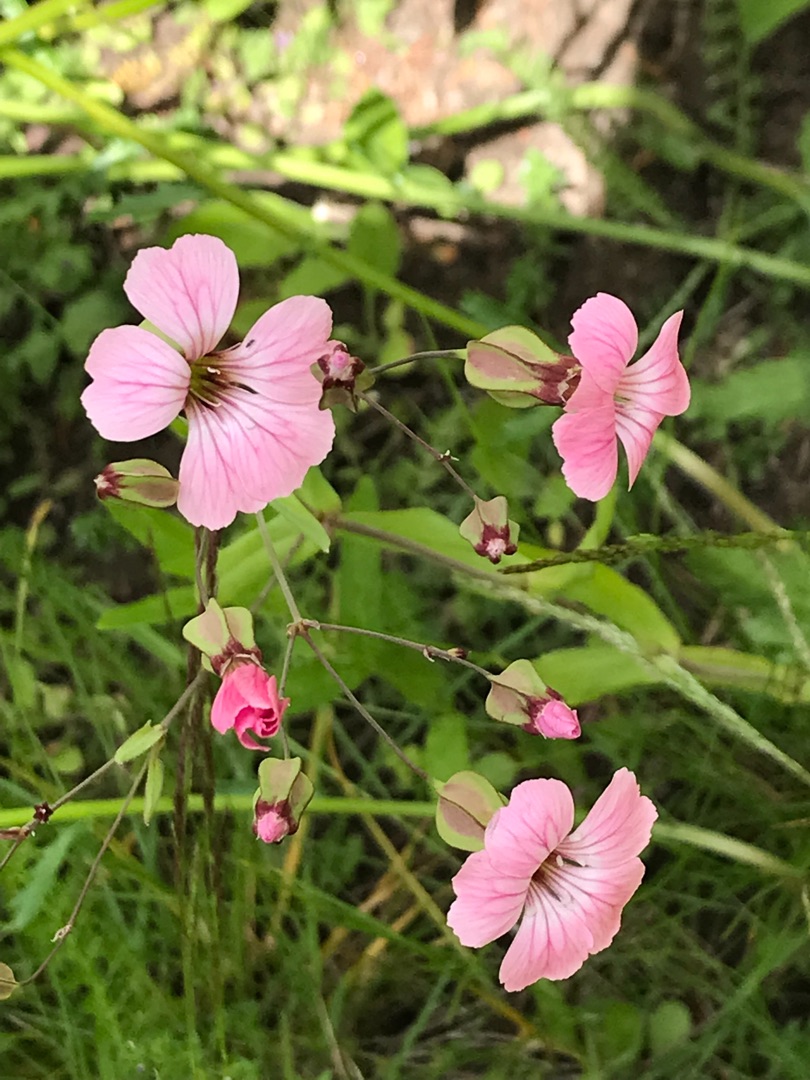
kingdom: Plantae
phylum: Tracheophyta
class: Magnoliopsida
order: Caryophyllales
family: Caryophyllaceae
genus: Gypsophila
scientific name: Gypsophila vaccaria
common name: Konellike
